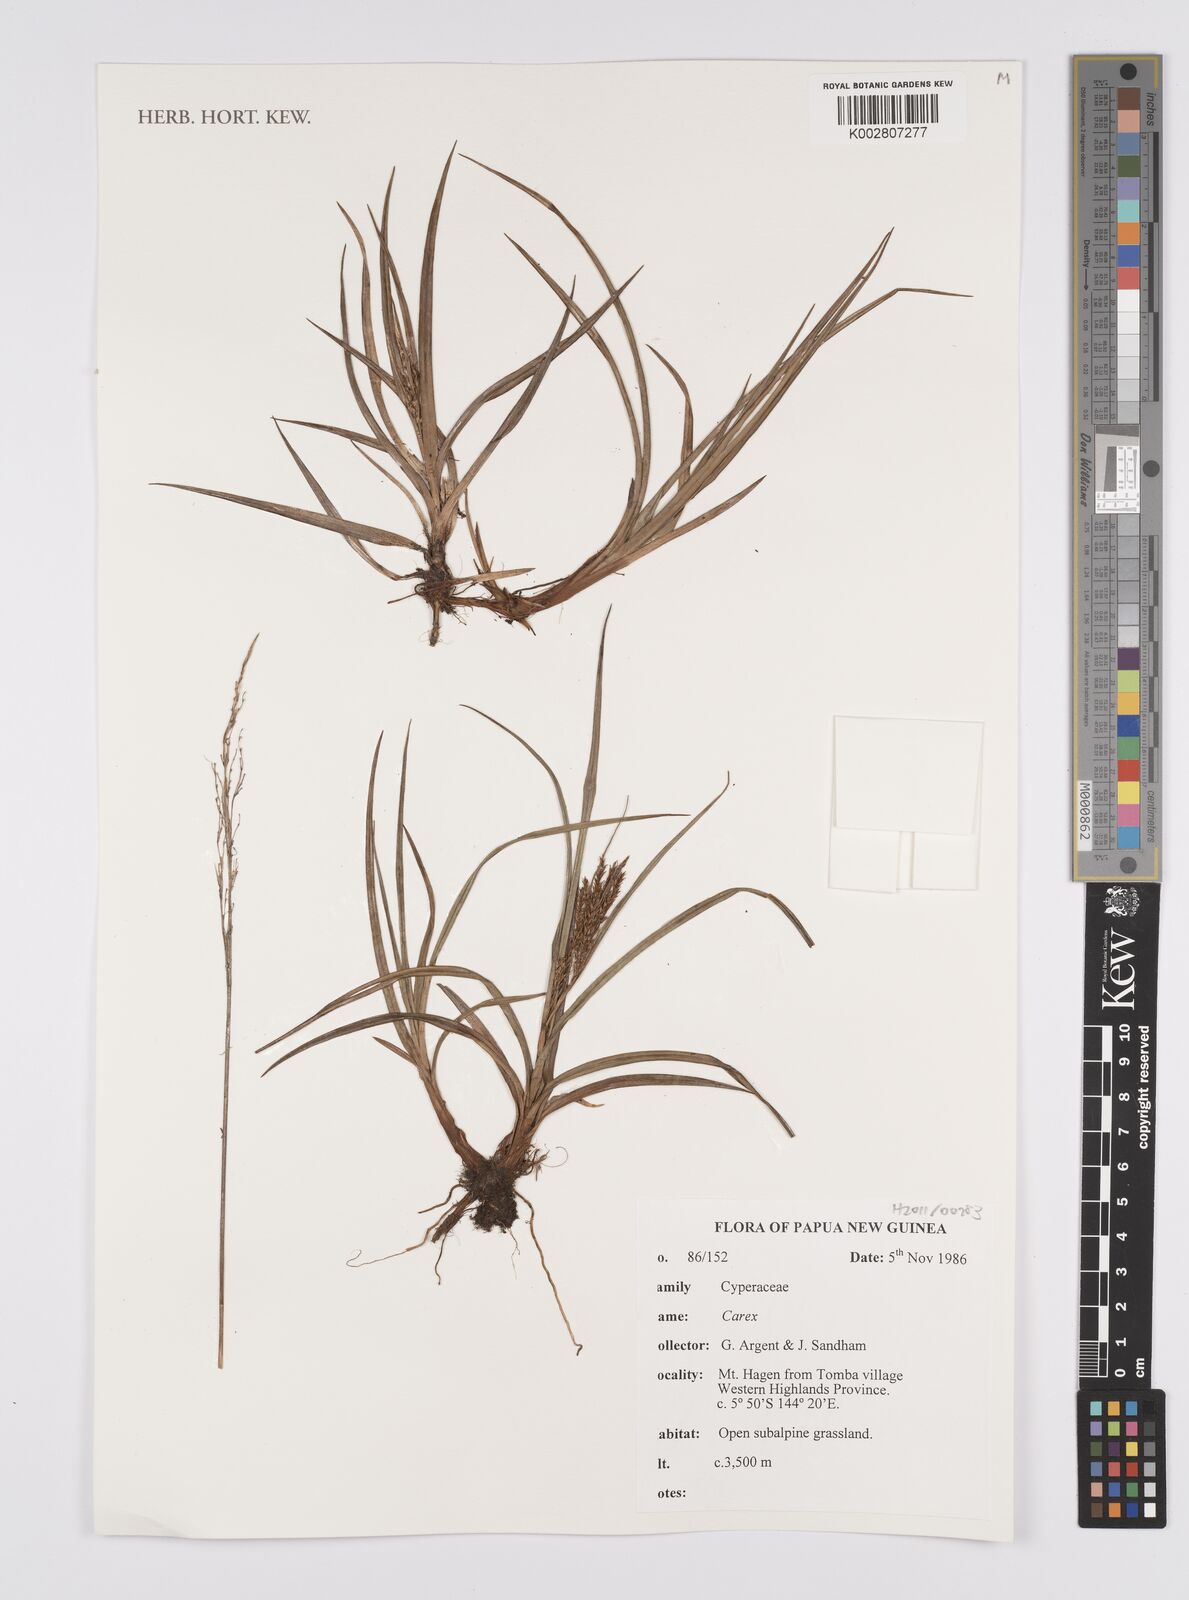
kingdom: Plantae
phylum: Tracheophyta
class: Liliopsida
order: Poales
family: Cyperaceae
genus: Carex
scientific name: Carex
